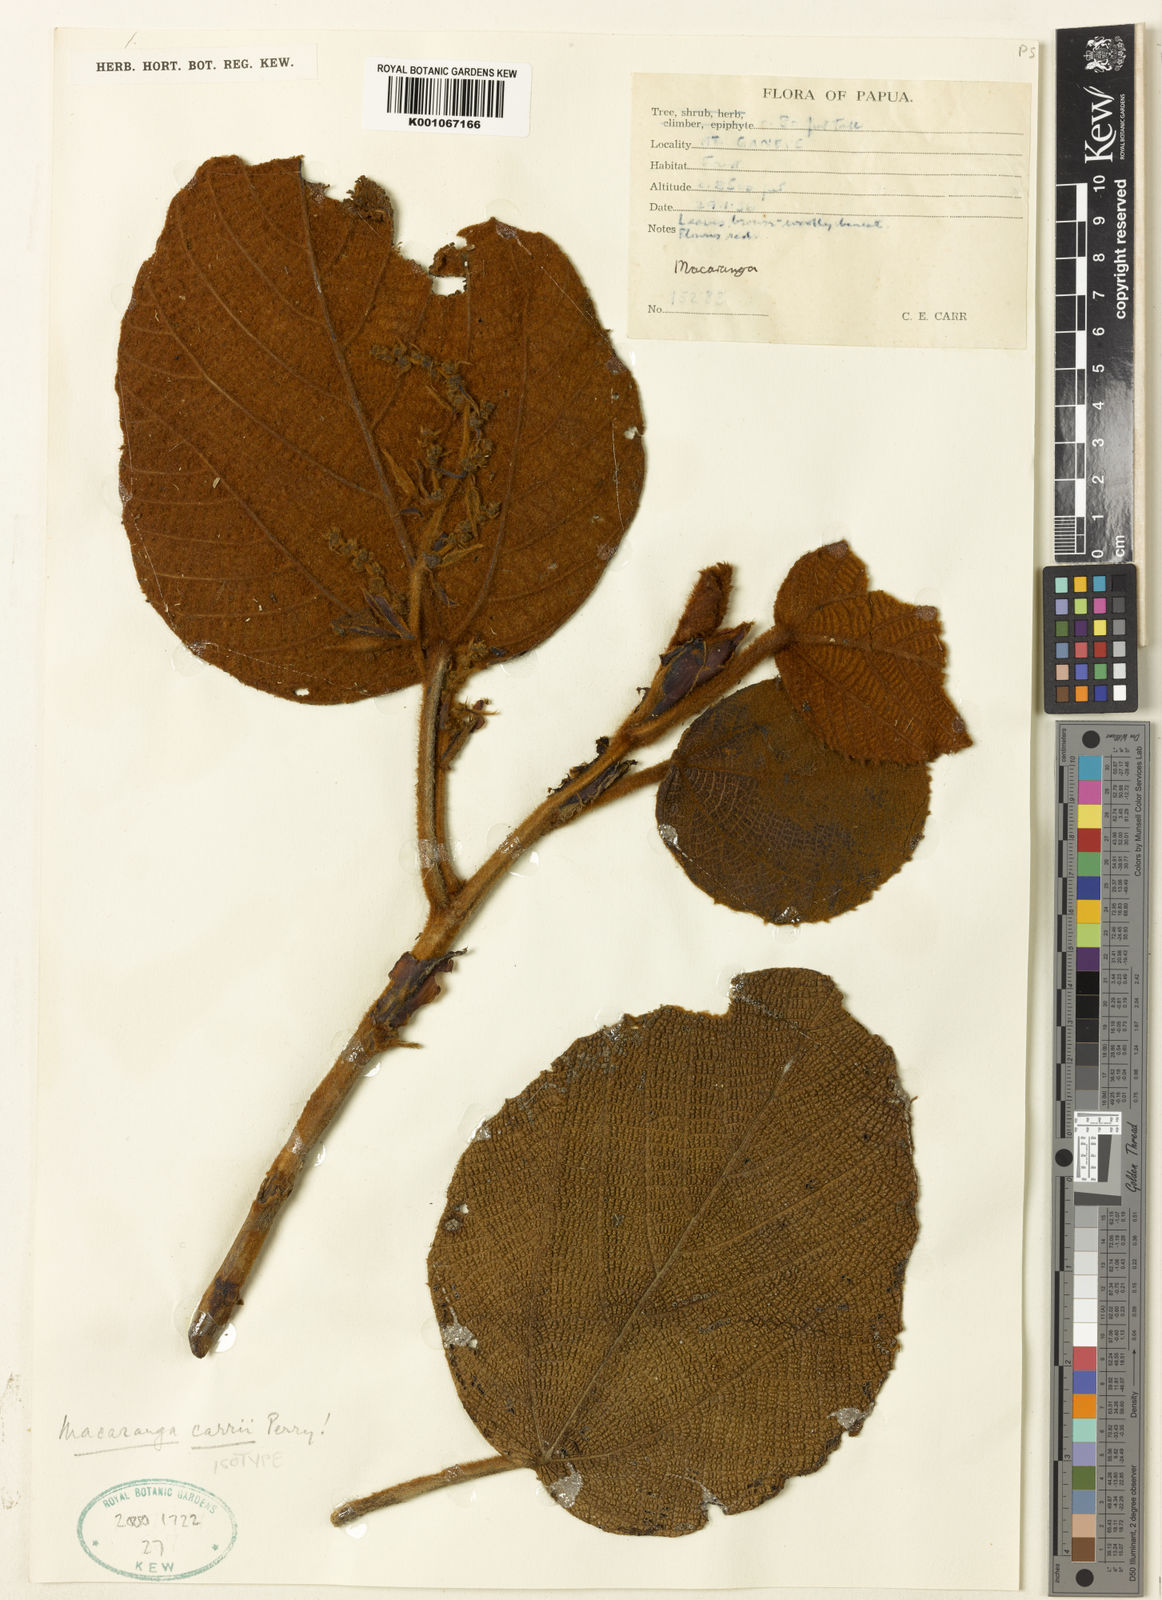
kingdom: Plantae
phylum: Tracheophyta
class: Magnoliopsida
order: Malpighiales
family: Euphorbiaceae
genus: Macaranga
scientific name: Macaranga carrii
